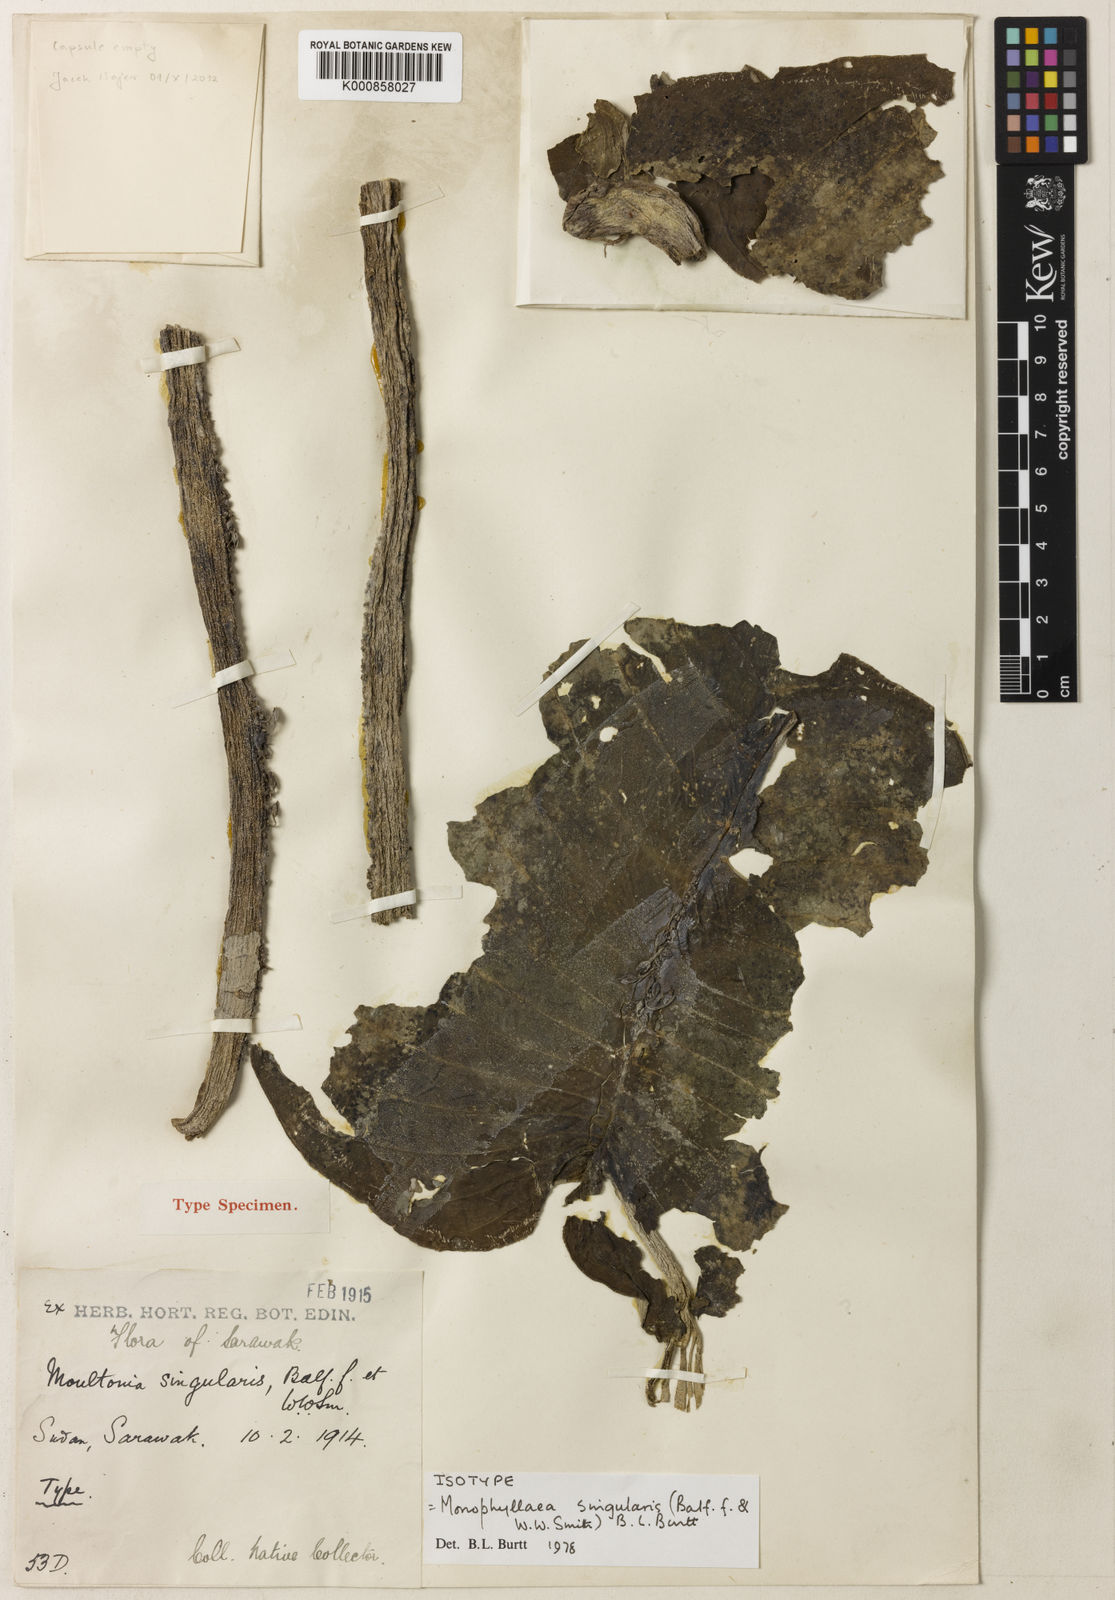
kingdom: Plantae
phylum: Tracheophyta
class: Magnoliopsida
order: Lamiales
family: Gesneriaceae
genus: Monophyllaea
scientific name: Monophyllaea singularis
